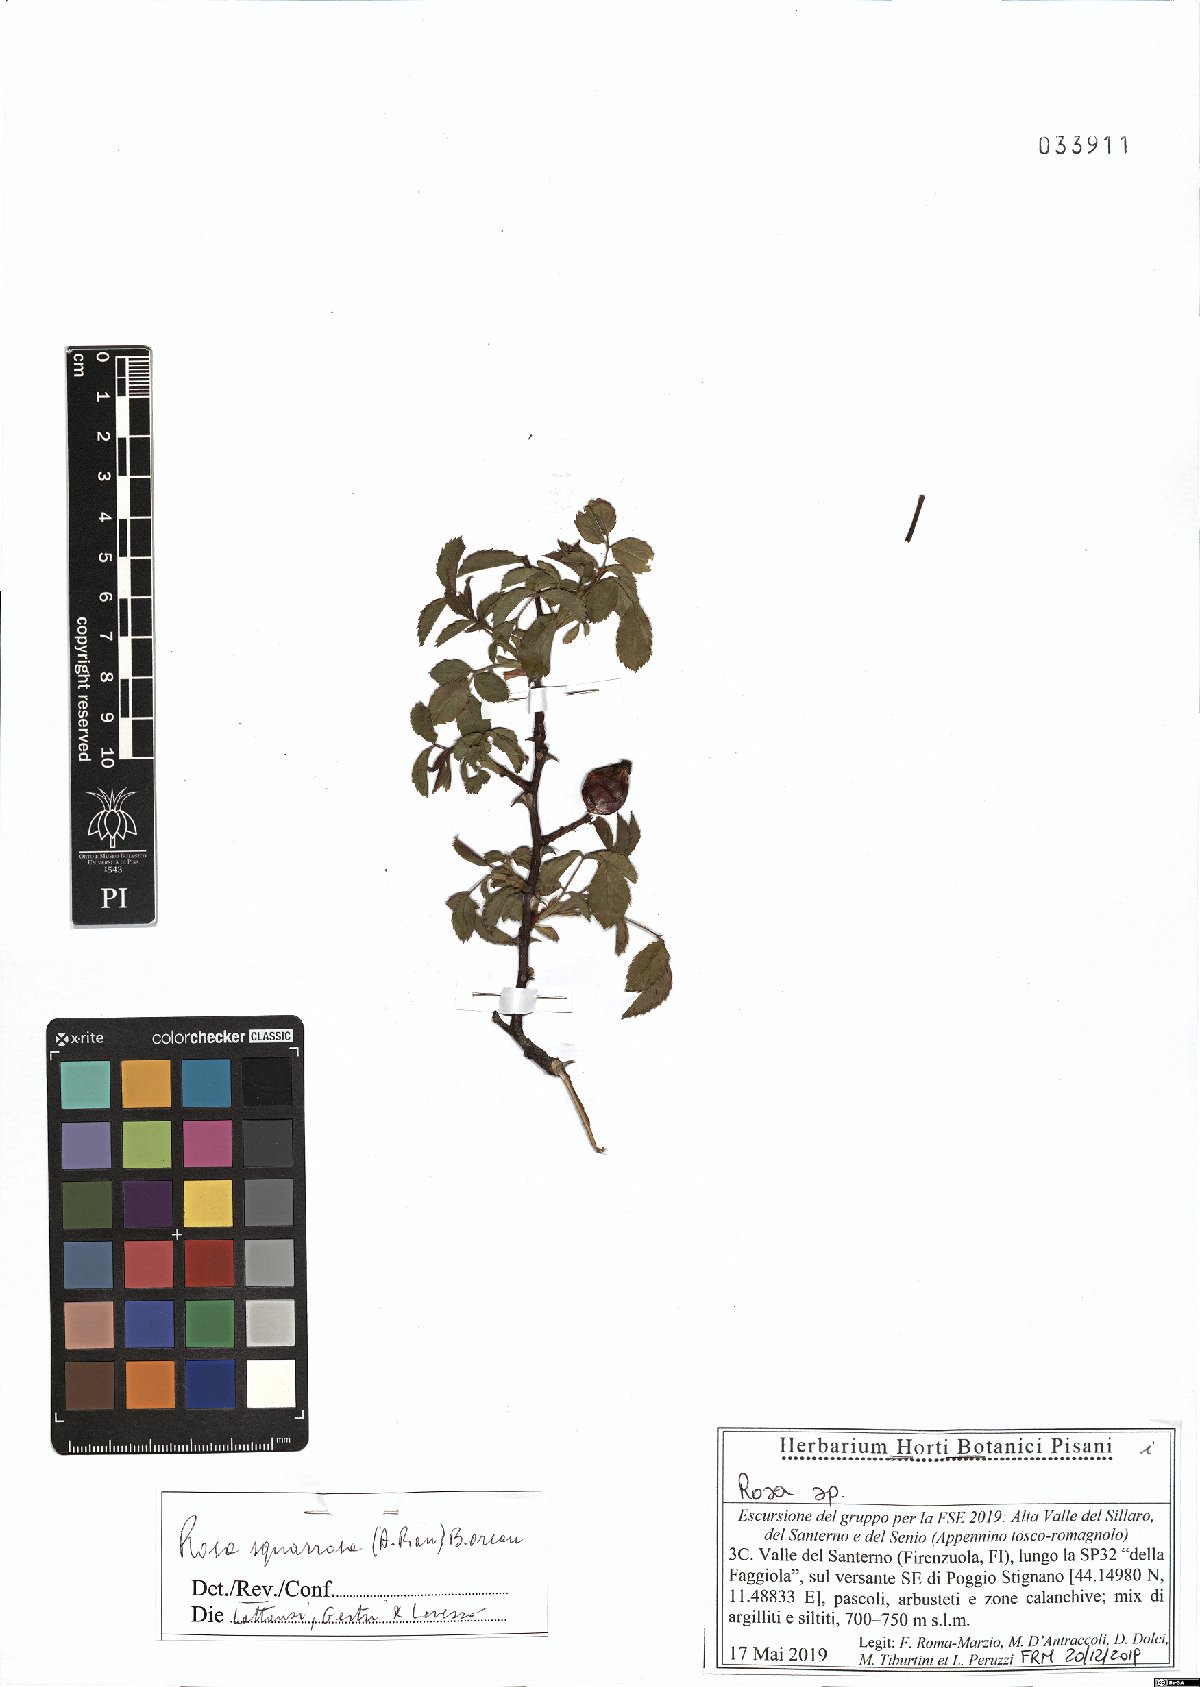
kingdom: Plantae
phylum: Tracheophyta
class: Magnoliopsida
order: Rosales
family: Rosaceae
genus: Rosa
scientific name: Rosa canina
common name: Dog rose
